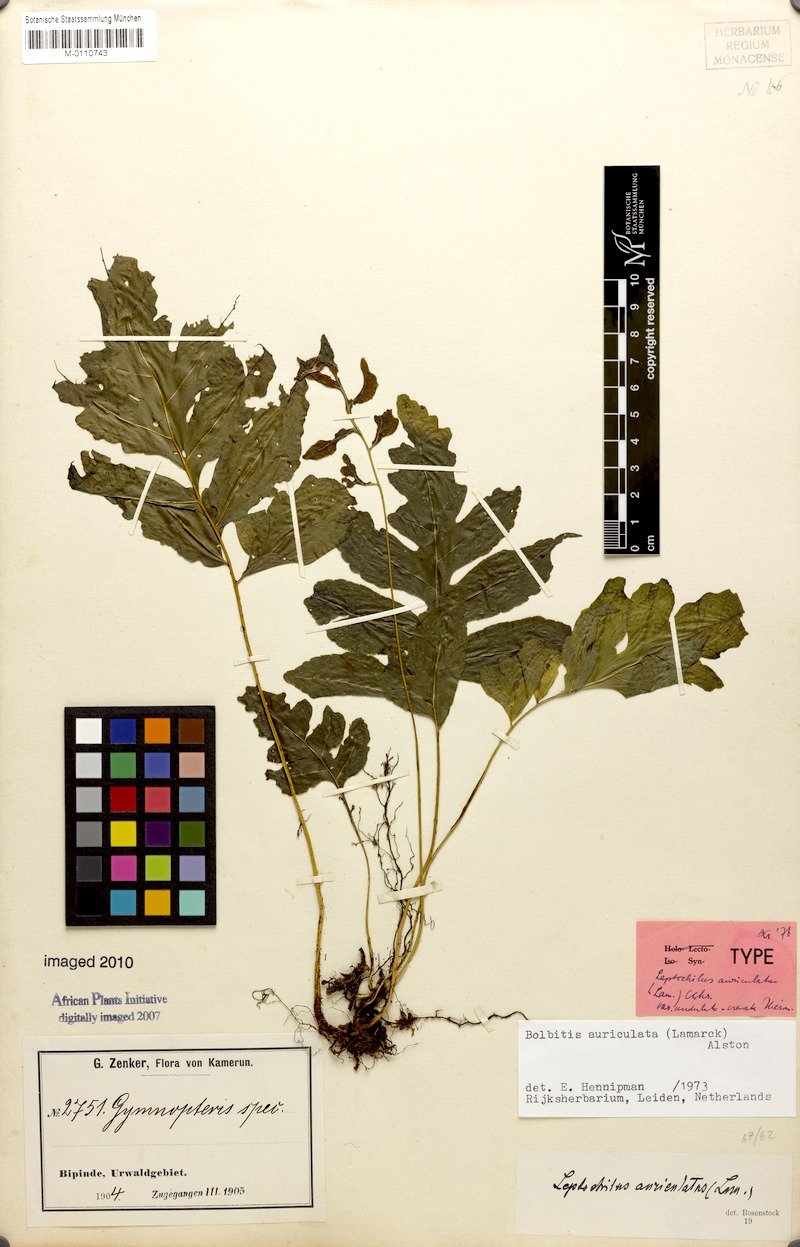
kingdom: Plantae
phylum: Tracheophyta
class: Polypodiopsida
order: Polypodiales
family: Dryopteridaceae
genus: Bolbitis
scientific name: Bolbitis auriculata
